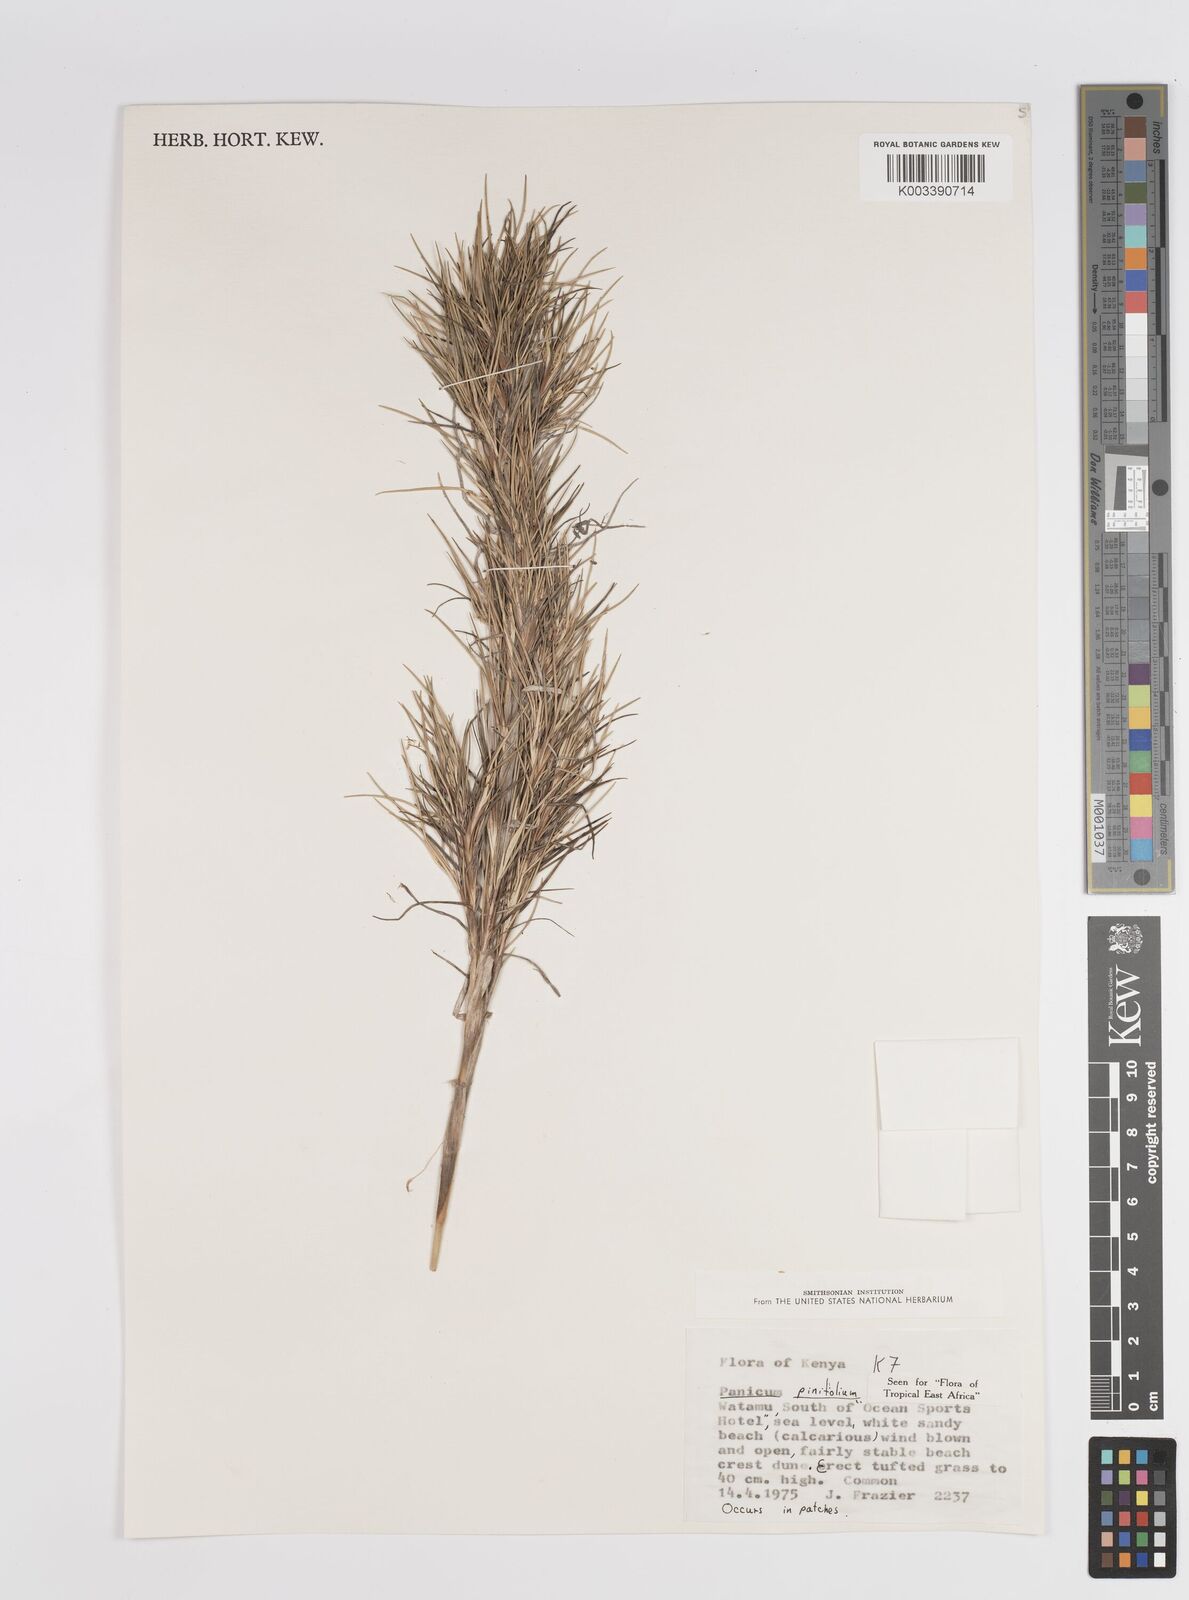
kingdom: Plantae
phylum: Tracheophyta
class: Liliopsida
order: Poales
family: Poaceae
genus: Panicum
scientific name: Panicum pinifolium
